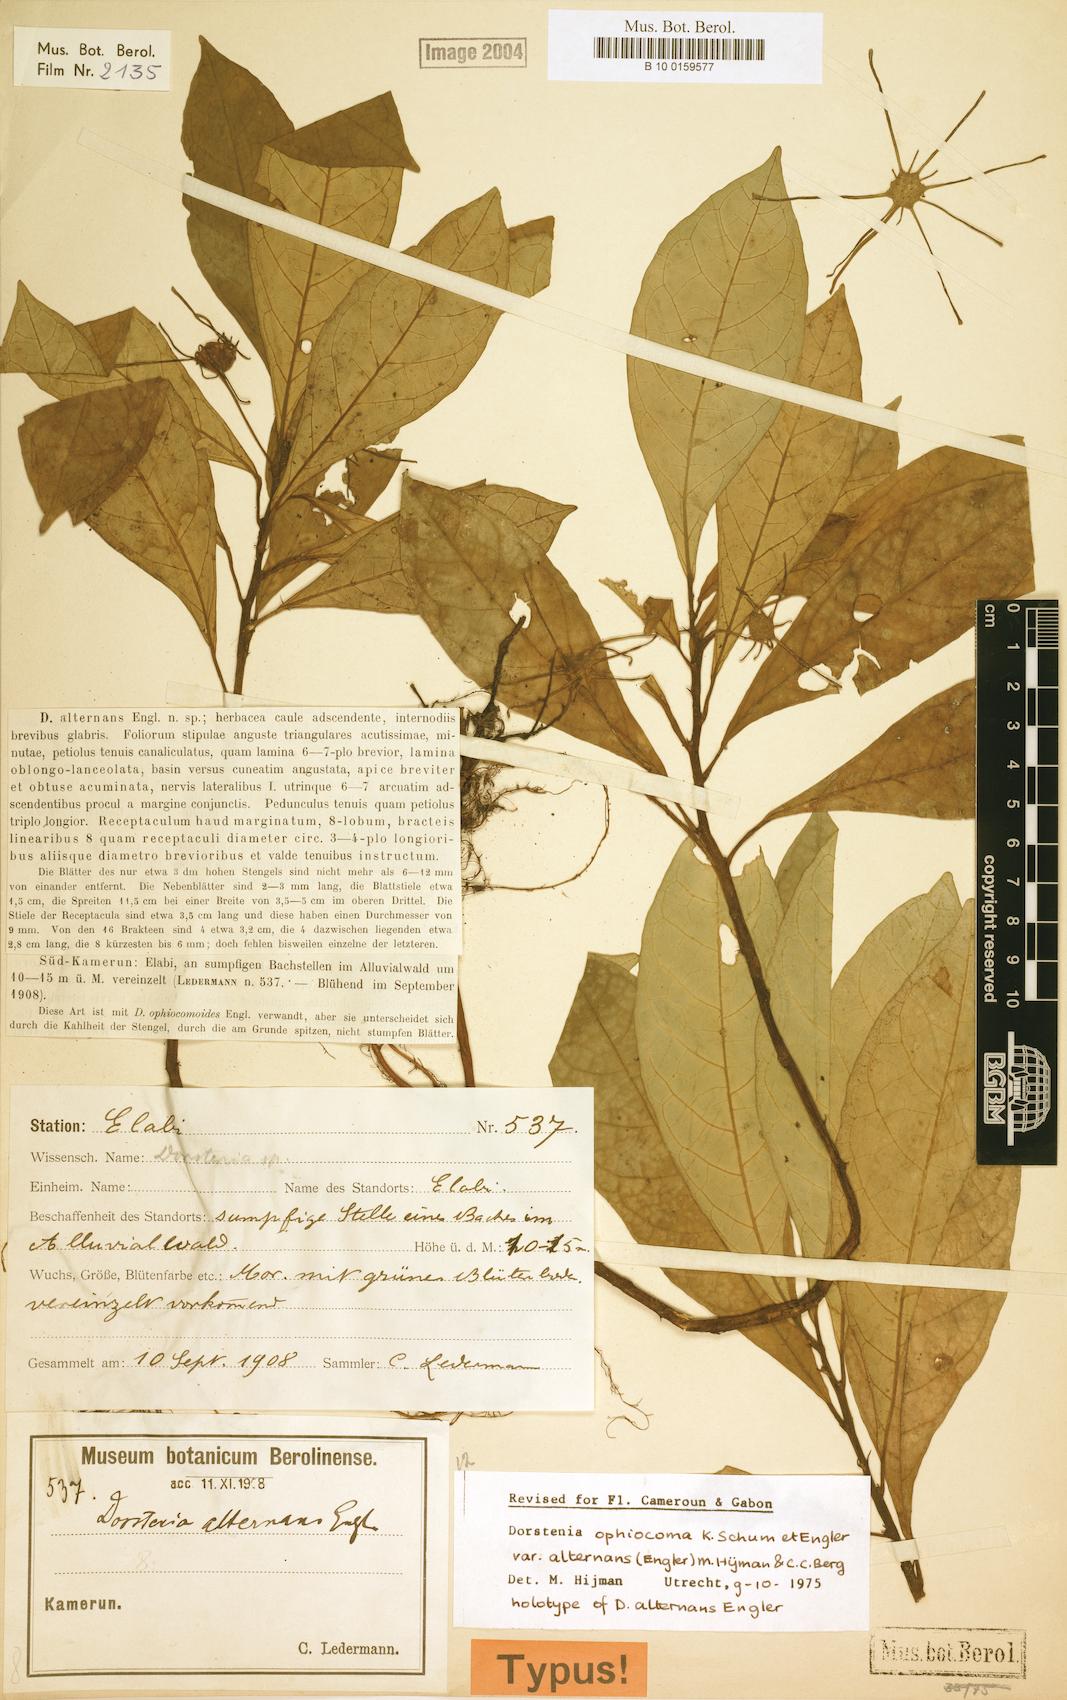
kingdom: Plantae
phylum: Tracheophyta
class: Magnoliopsida
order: Rosales
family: Moraceae
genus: Dorstenia
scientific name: Dorstenia mannii
